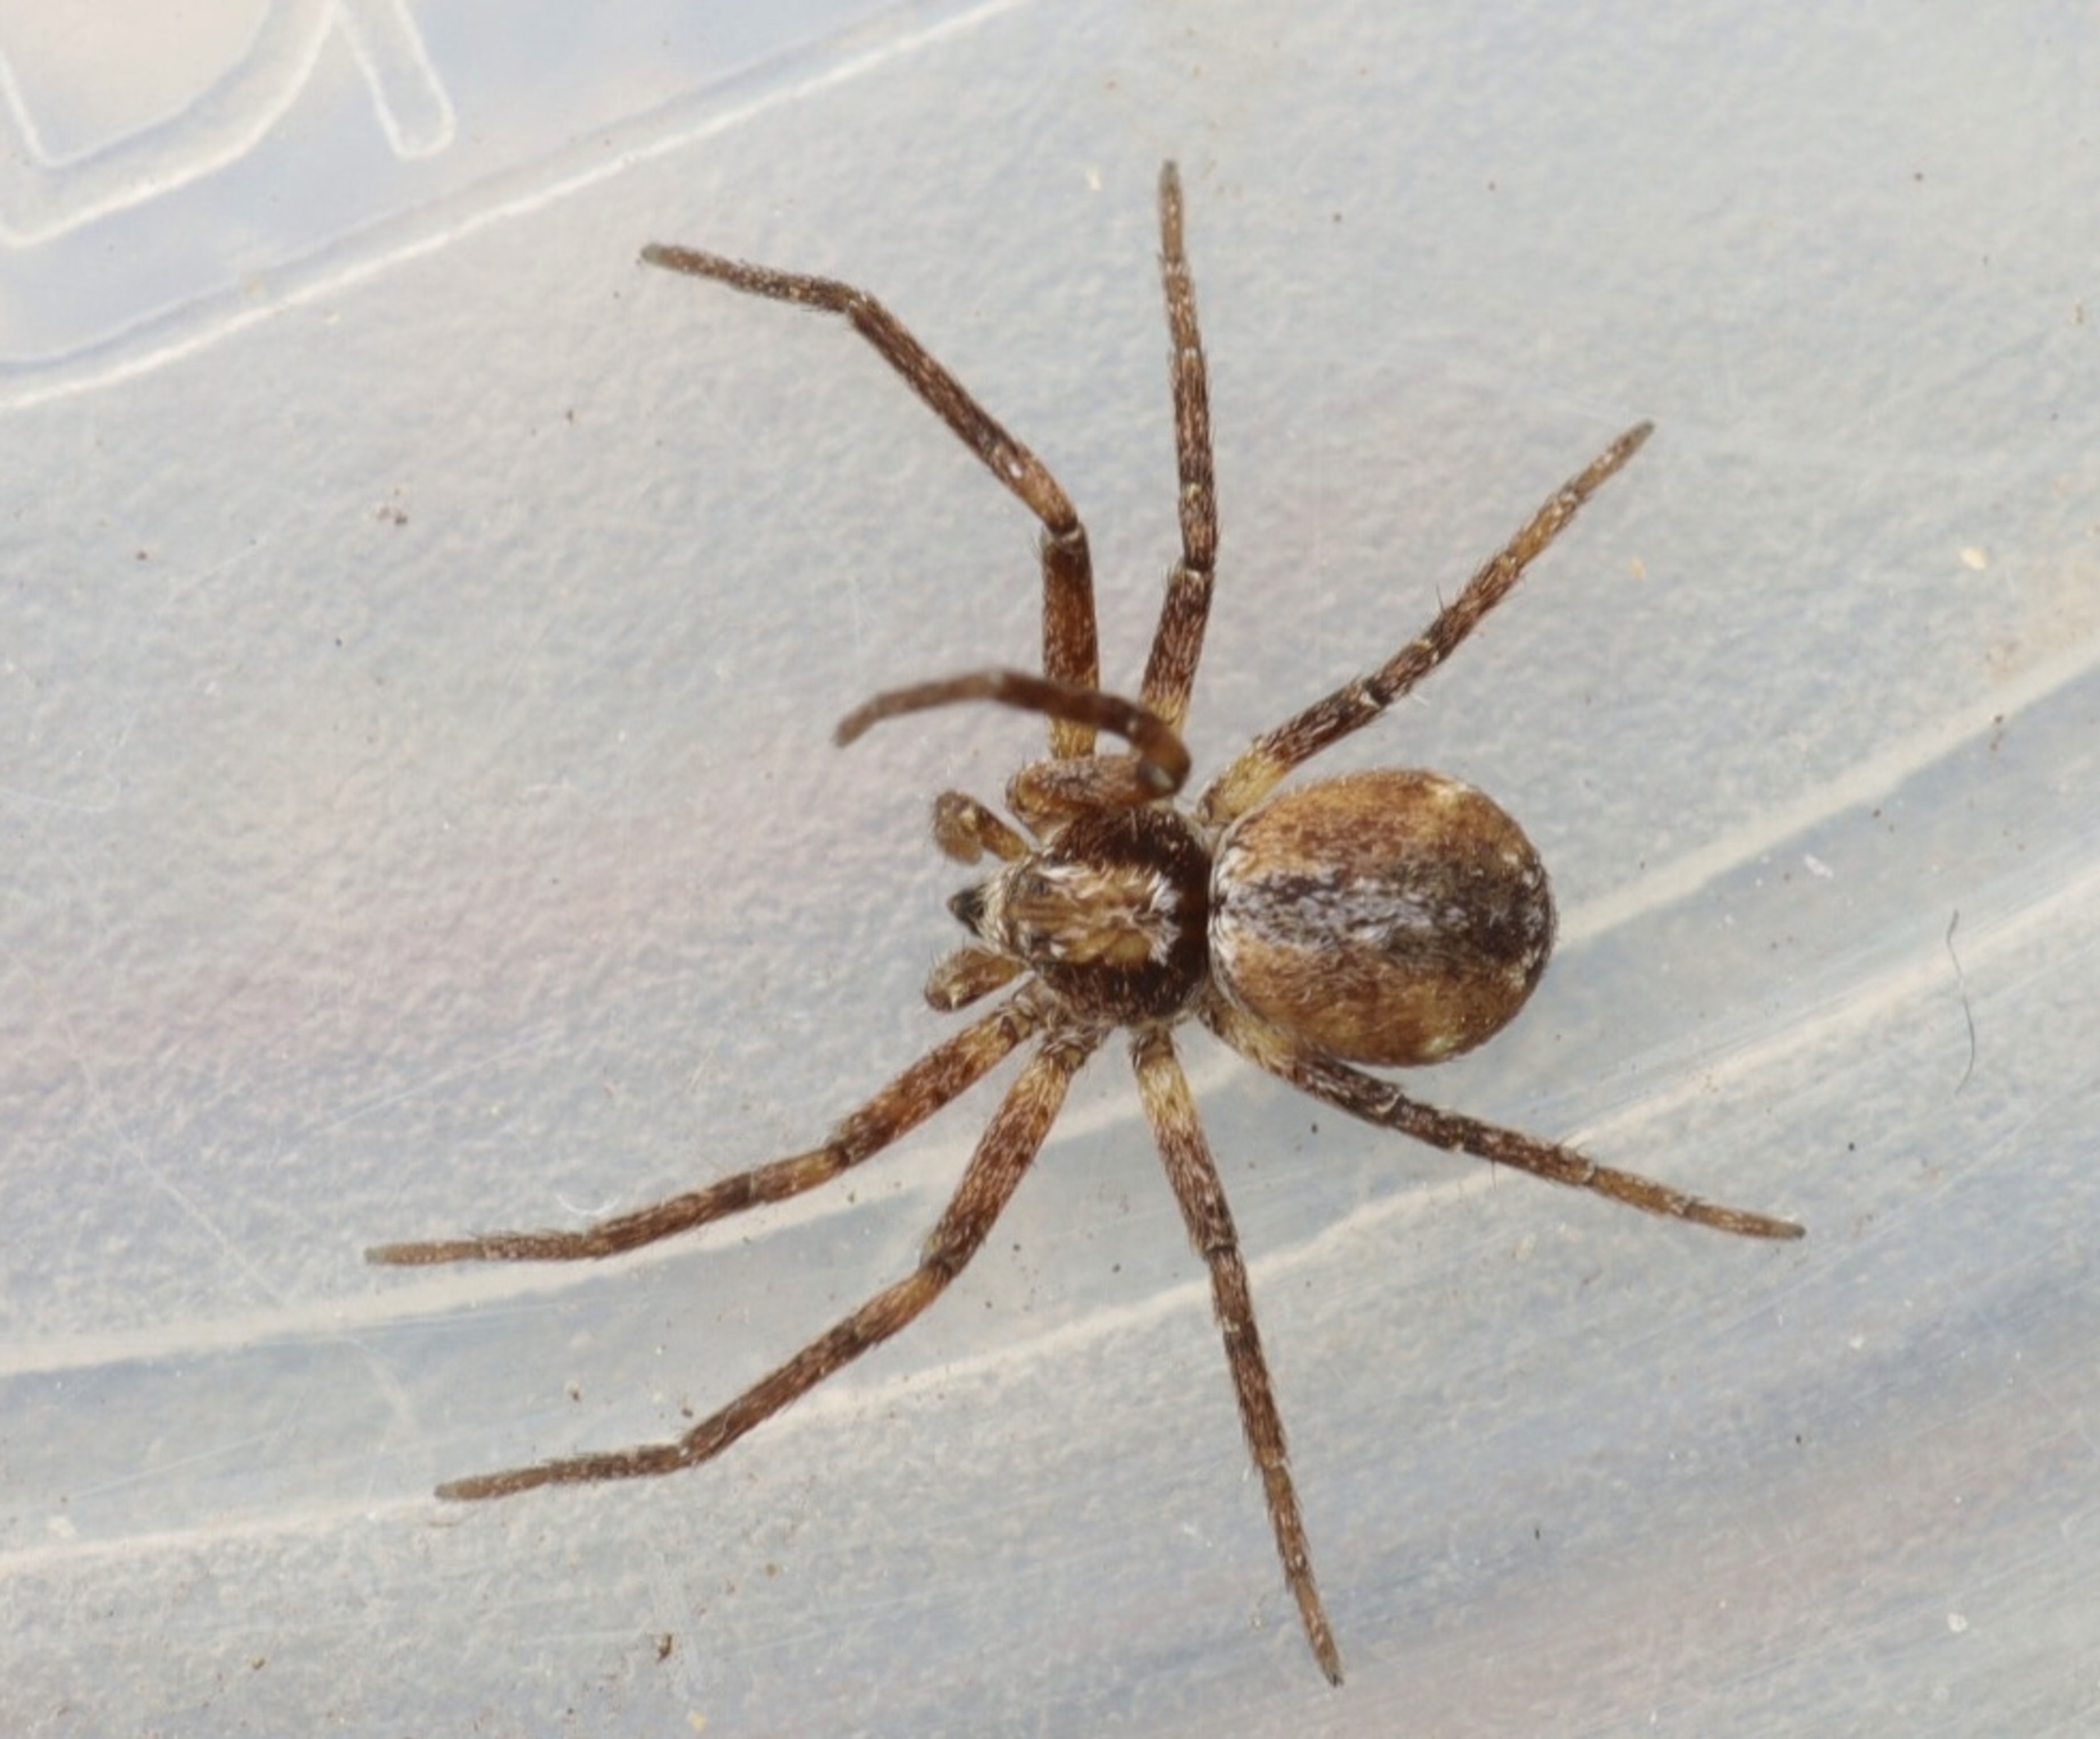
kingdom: Animalia
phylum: Arthropoda
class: Arachnida
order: Araneae
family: Philodromidae
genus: Philodromus
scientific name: Philodromus collinus
